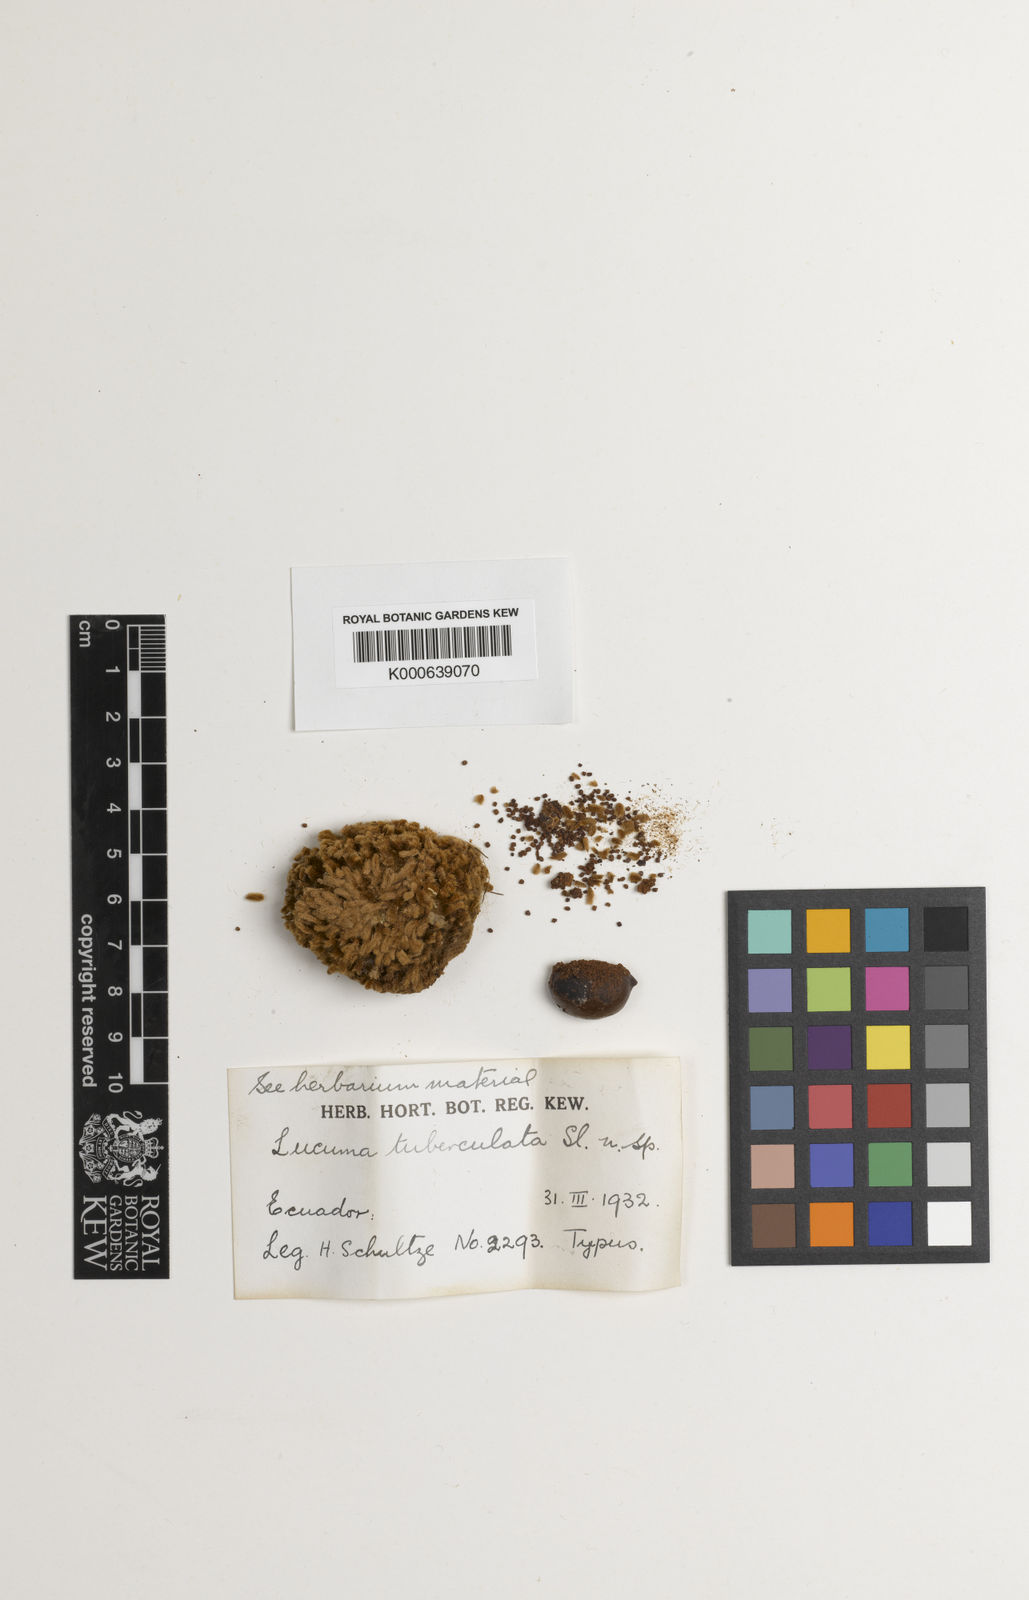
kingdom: Plantae
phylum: Tracheophyta
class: Magnoliopsida
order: Ericales
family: Sapotaceae
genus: Pouteria
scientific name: Pouteria torta
